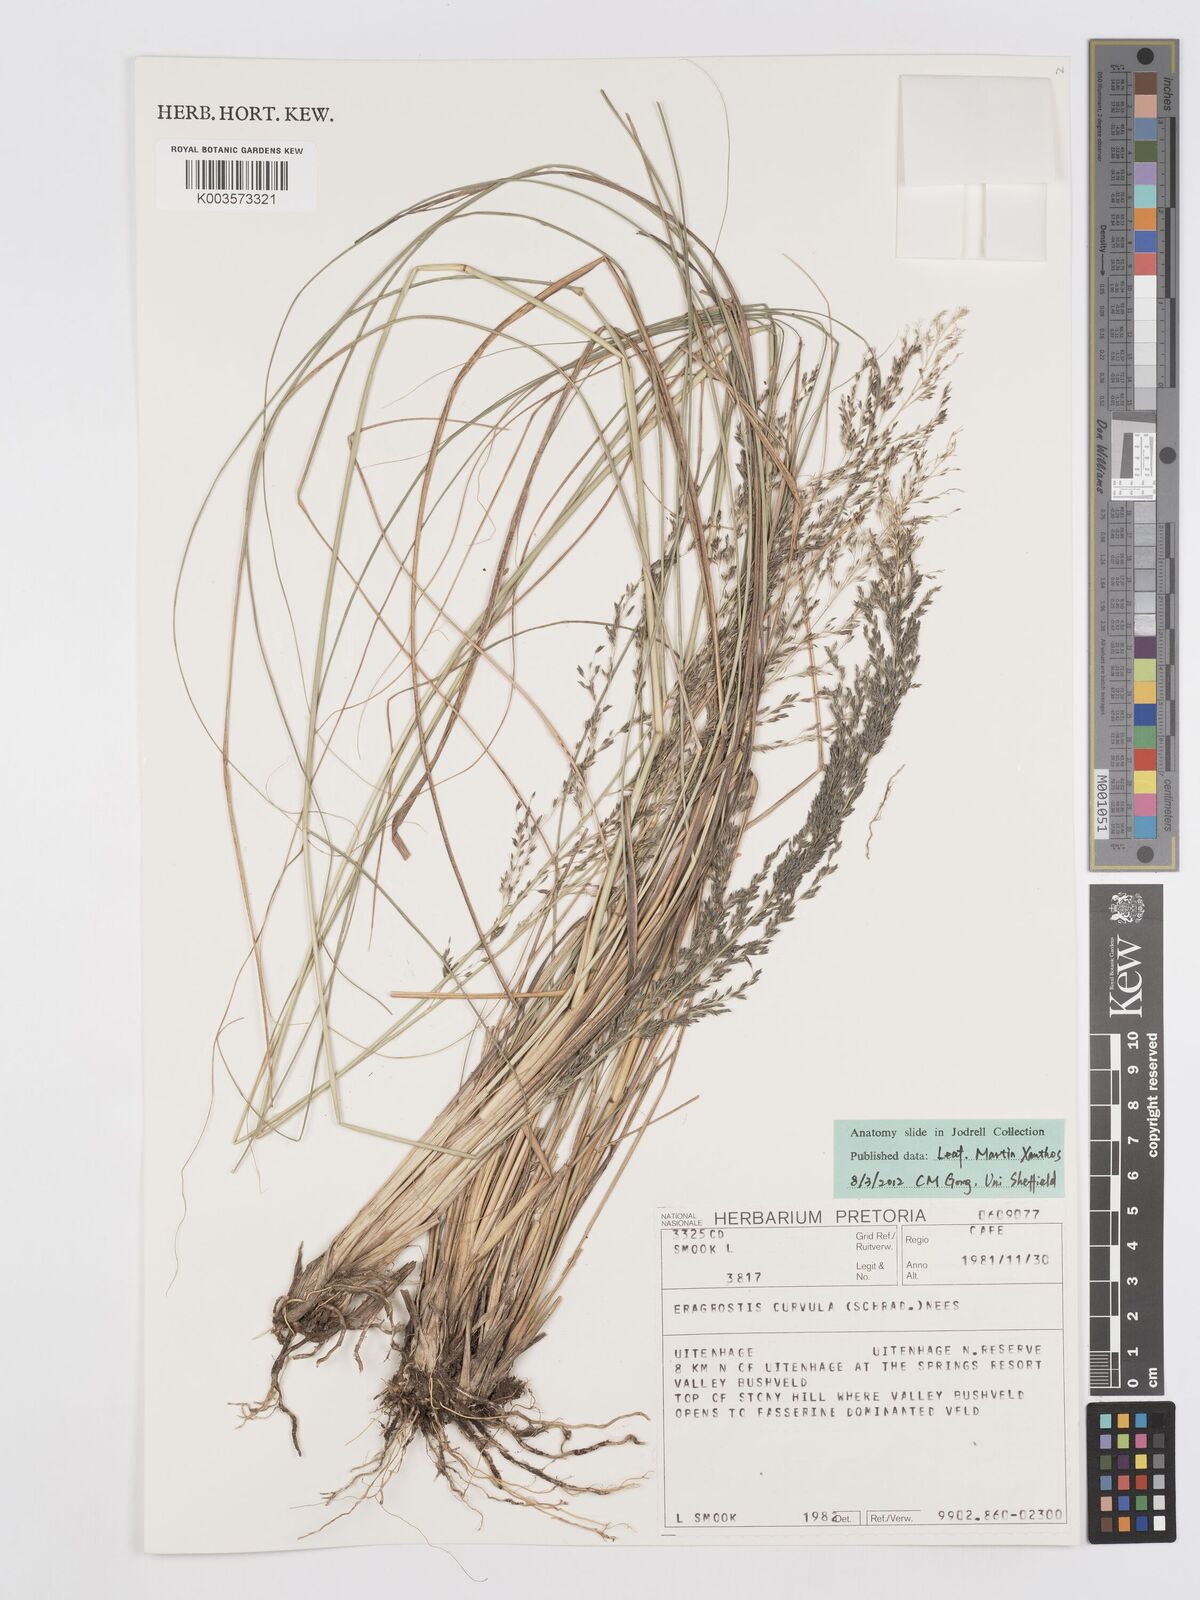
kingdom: Plantae
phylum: Tracheophyta
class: Liliopsida
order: Poales
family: Poaceae
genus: Eragrostis
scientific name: Eragrostis curvula
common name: African love-grass
